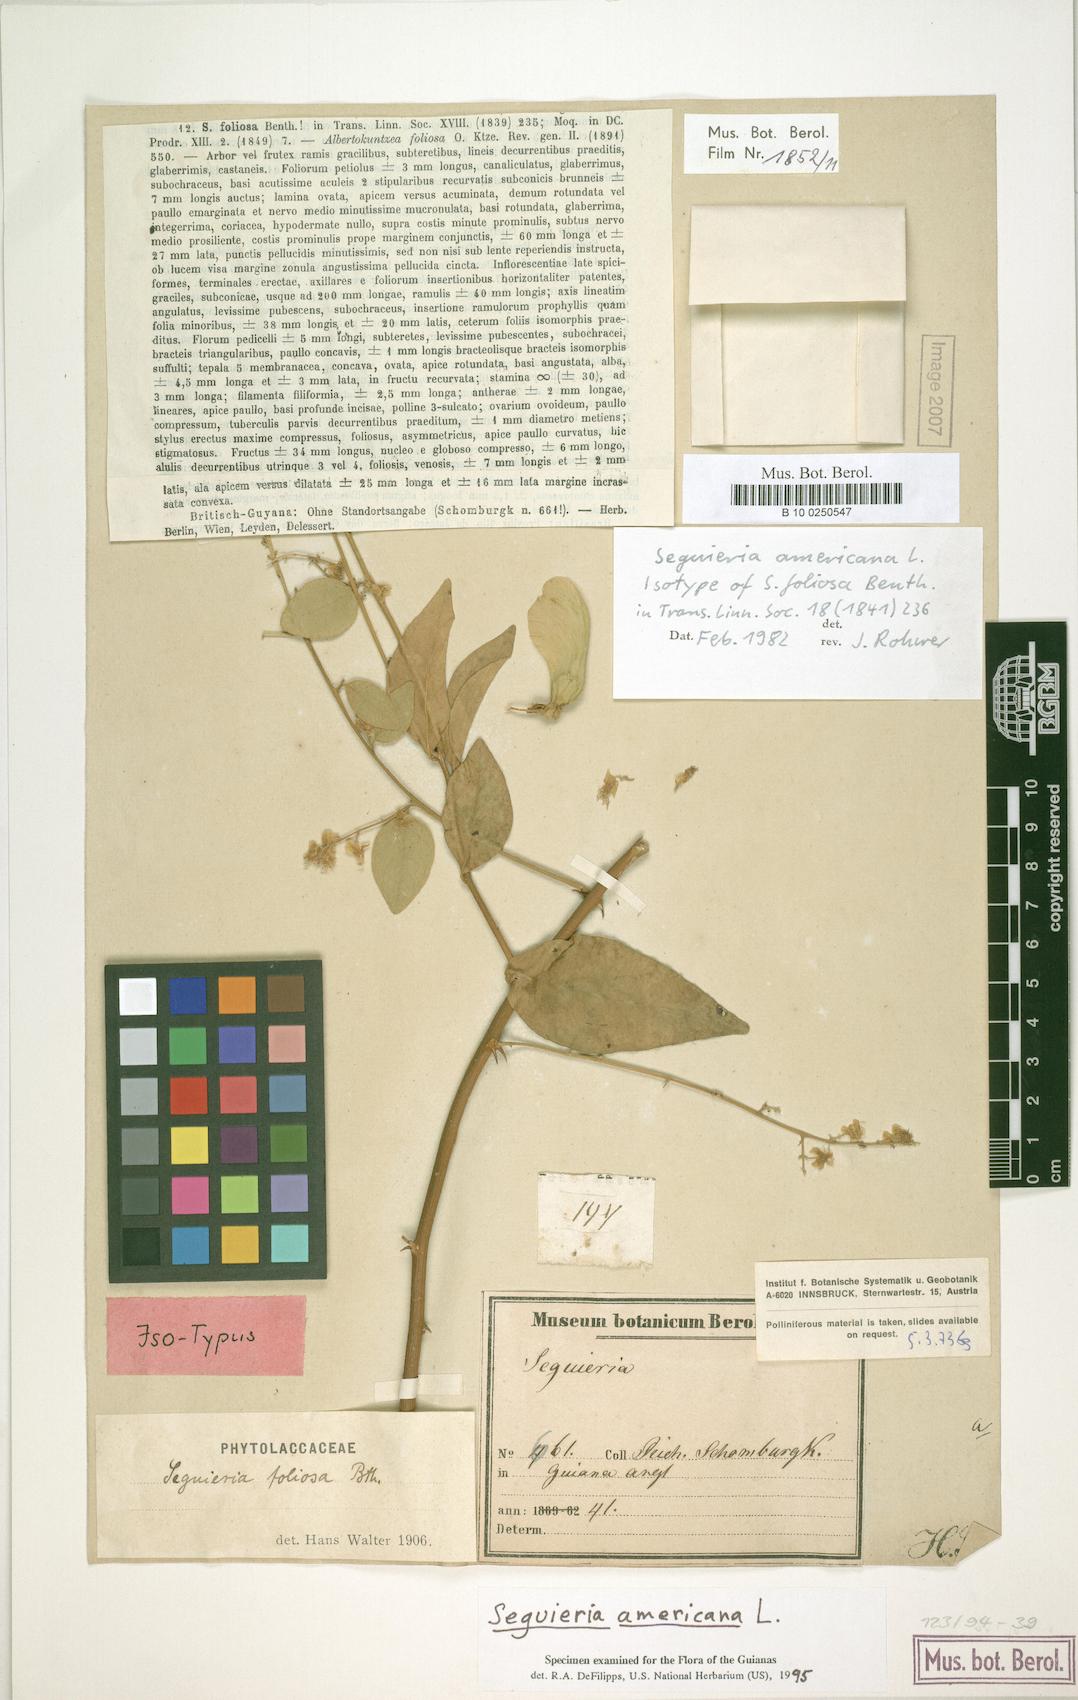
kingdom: Plantae
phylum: Tracheophyta
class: Magnoliopsida
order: Caryophyllales
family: Phytolaccaceae
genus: Seguieria
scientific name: Seguieria americana
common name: American seguieria
